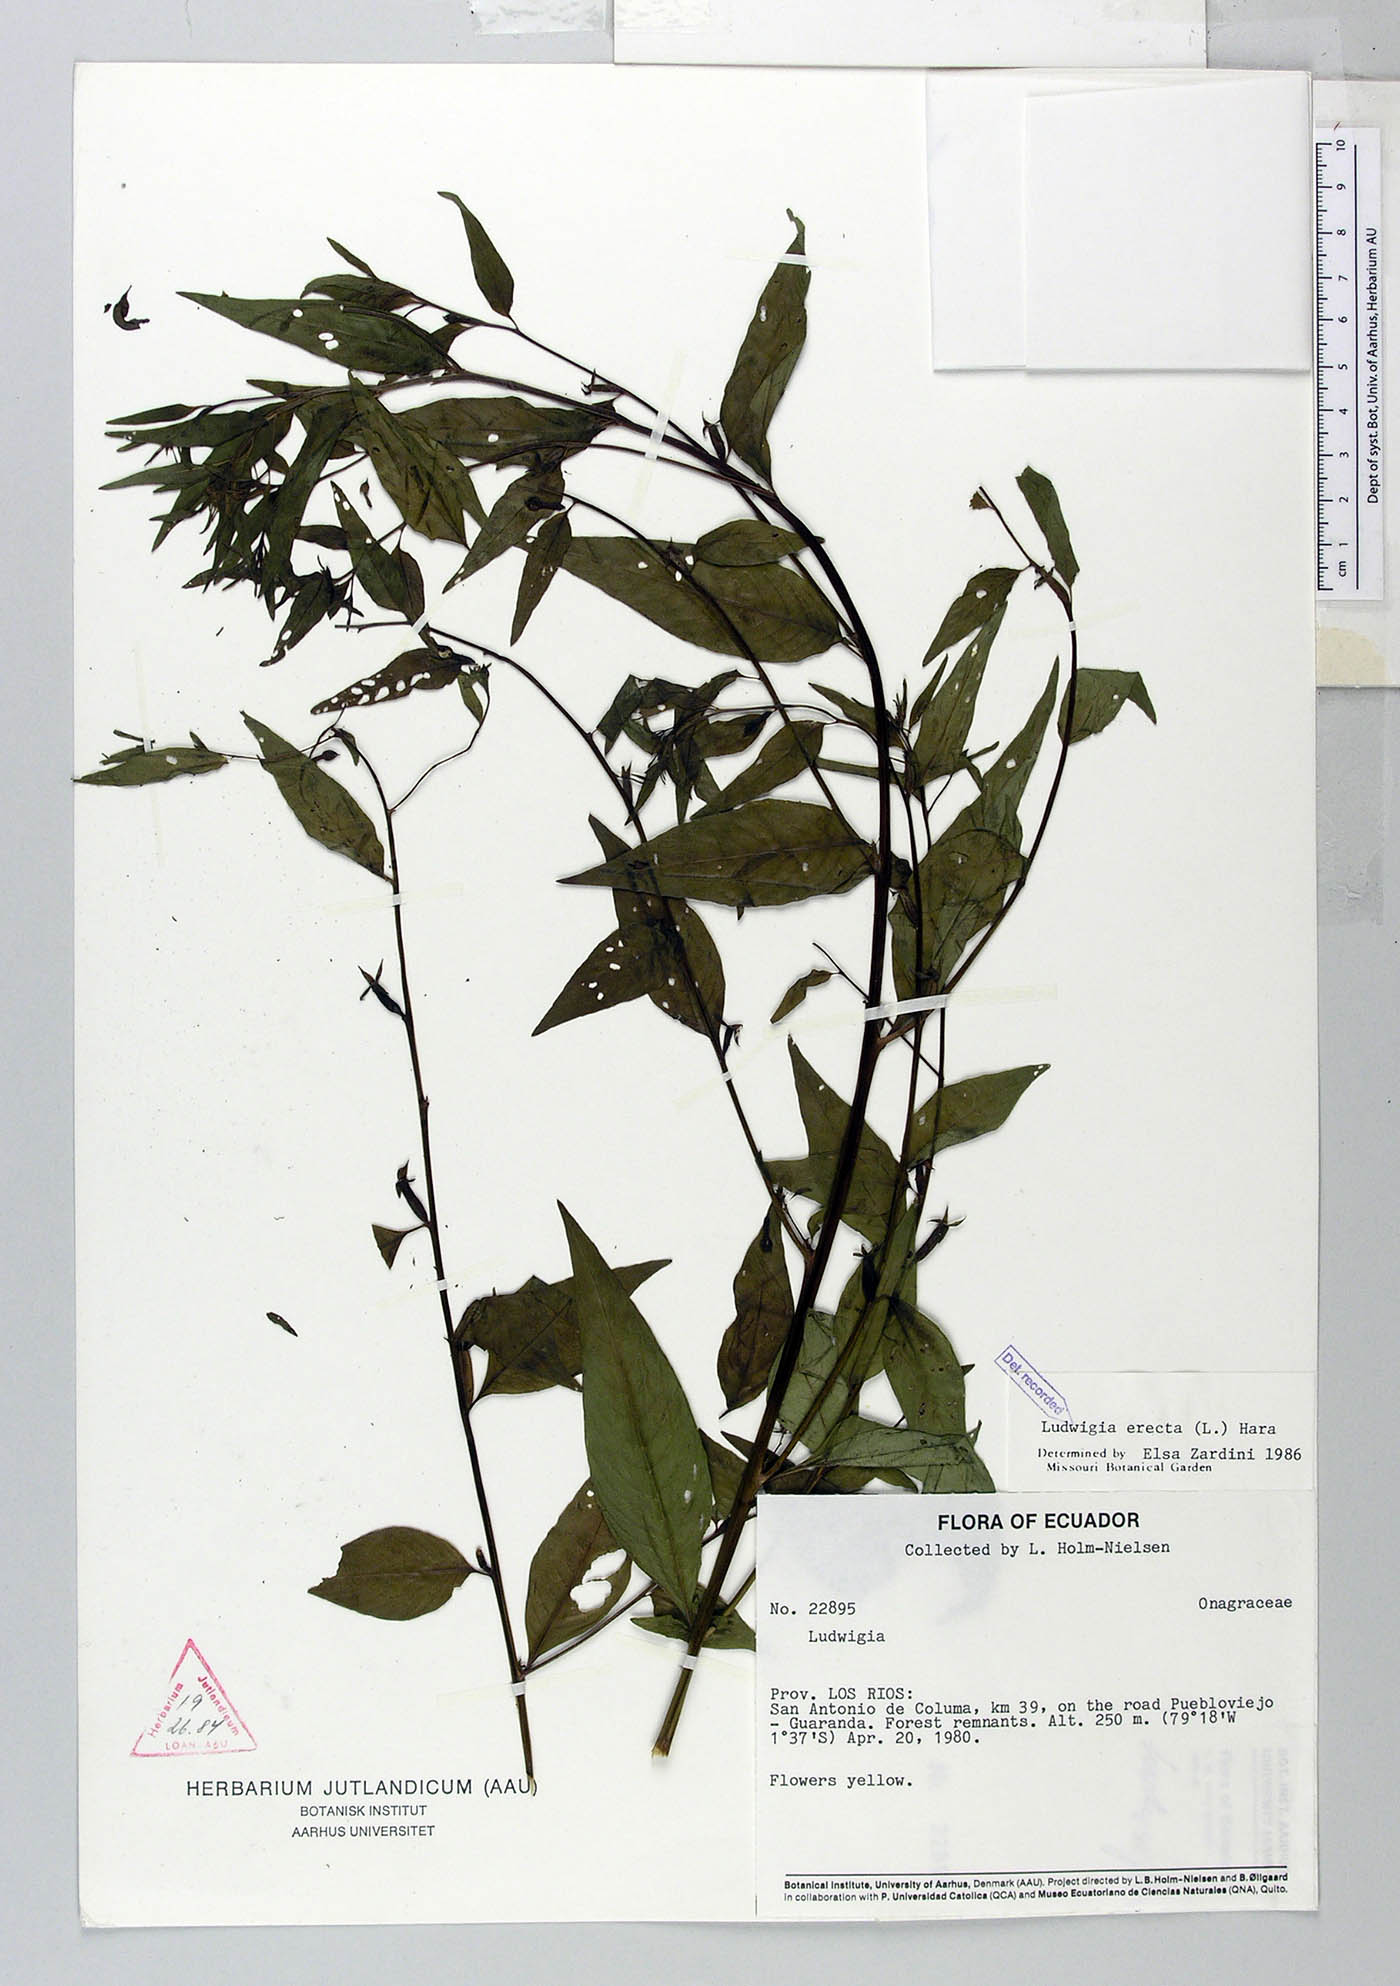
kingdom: Plantae
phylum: Tracheophyta
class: Magnoliopsida
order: Myrtales
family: Onagraceae
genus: Ludwigia
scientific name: Ludwigia erecta
